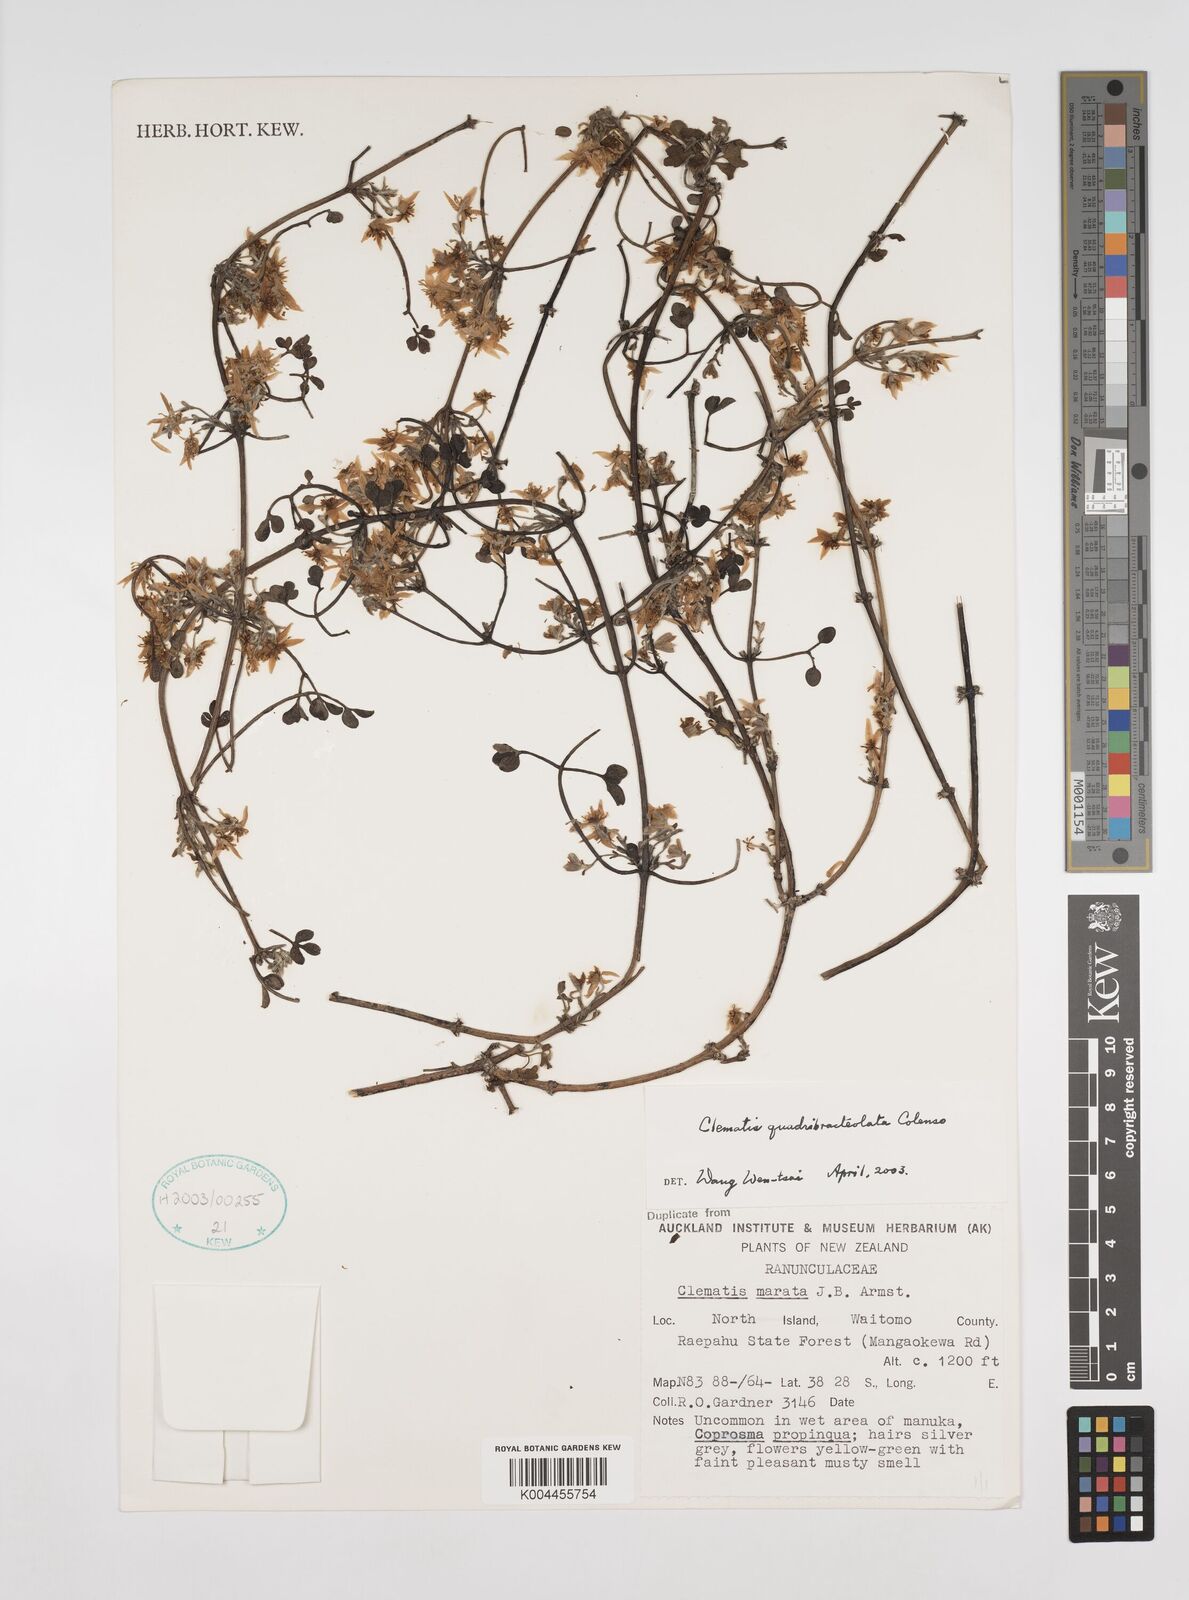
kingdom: Plantae
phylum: Tracheophyta
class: Magnoliopsida
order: Ranunculales
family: Ranunculaceae
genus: Clematis
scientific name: Clematis quadribracteolata
